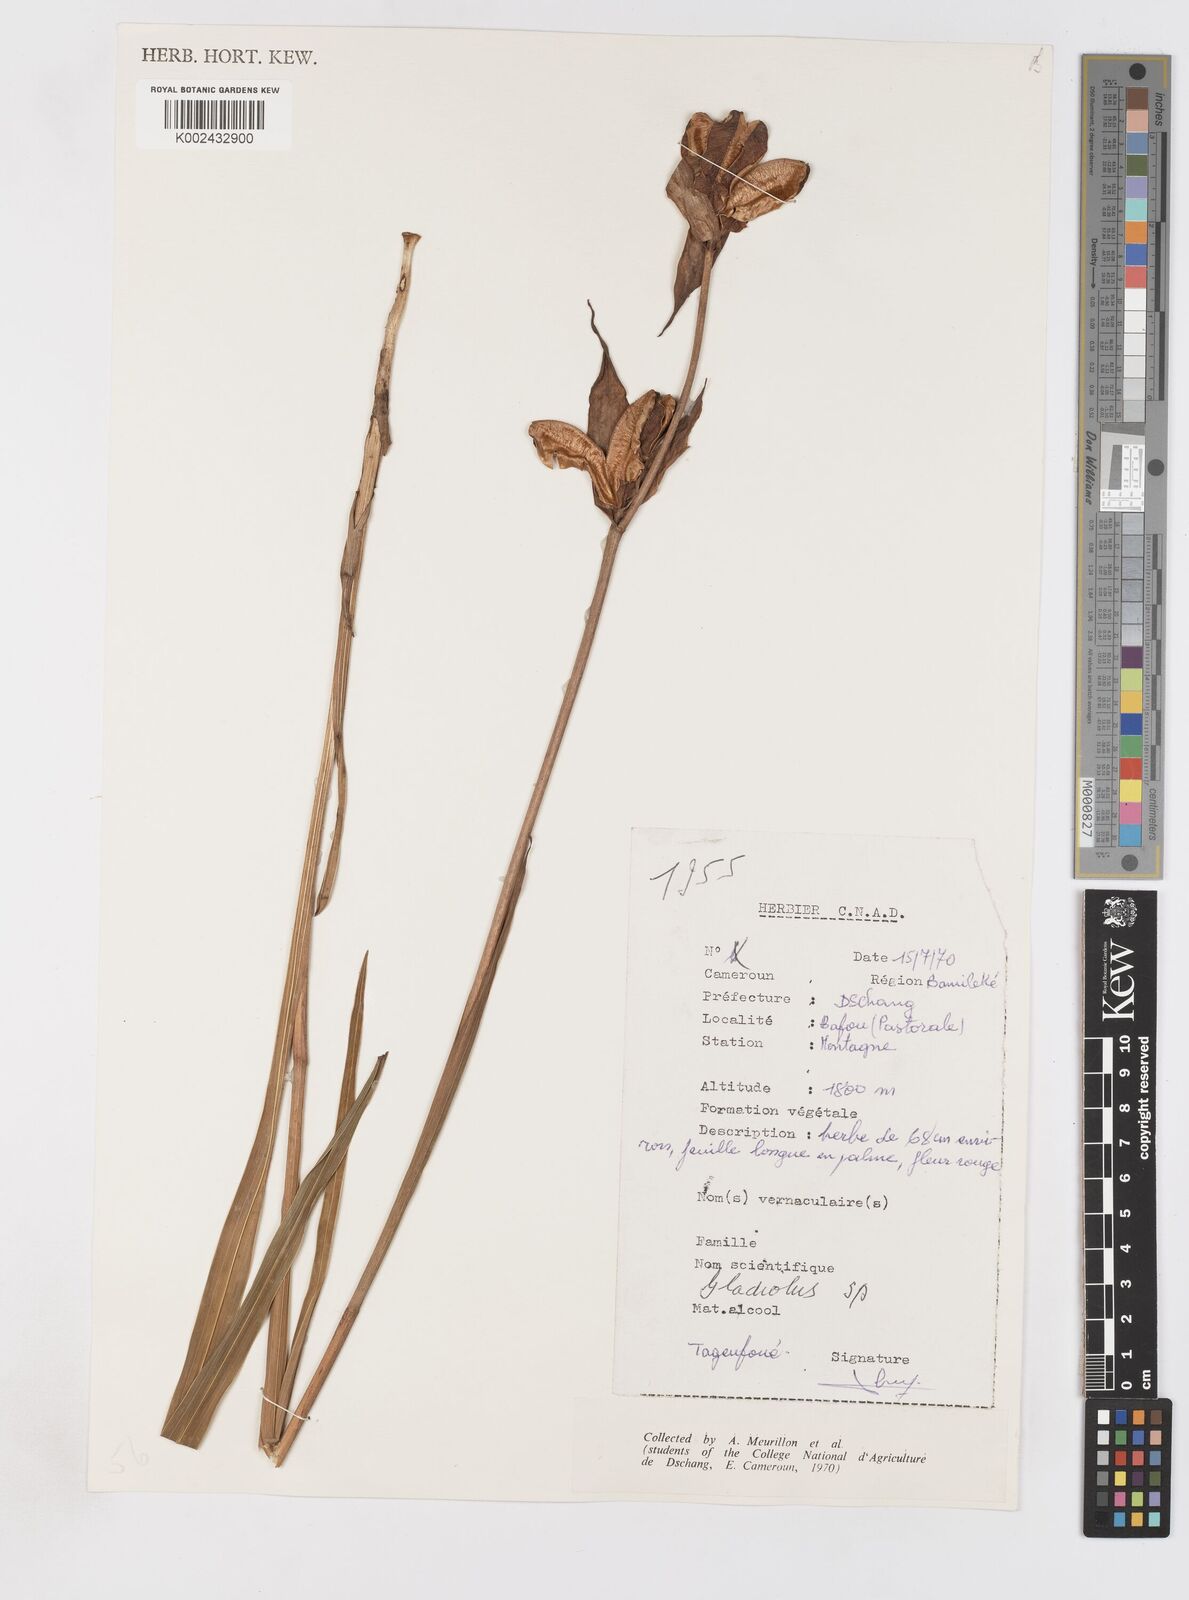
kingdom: Plantae
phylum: Tracheophyta
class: Liliopsida
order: Asparagales
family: Iridaceae
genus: Gladiolus
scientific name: Gladiolus dalenii
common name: Cornflag
